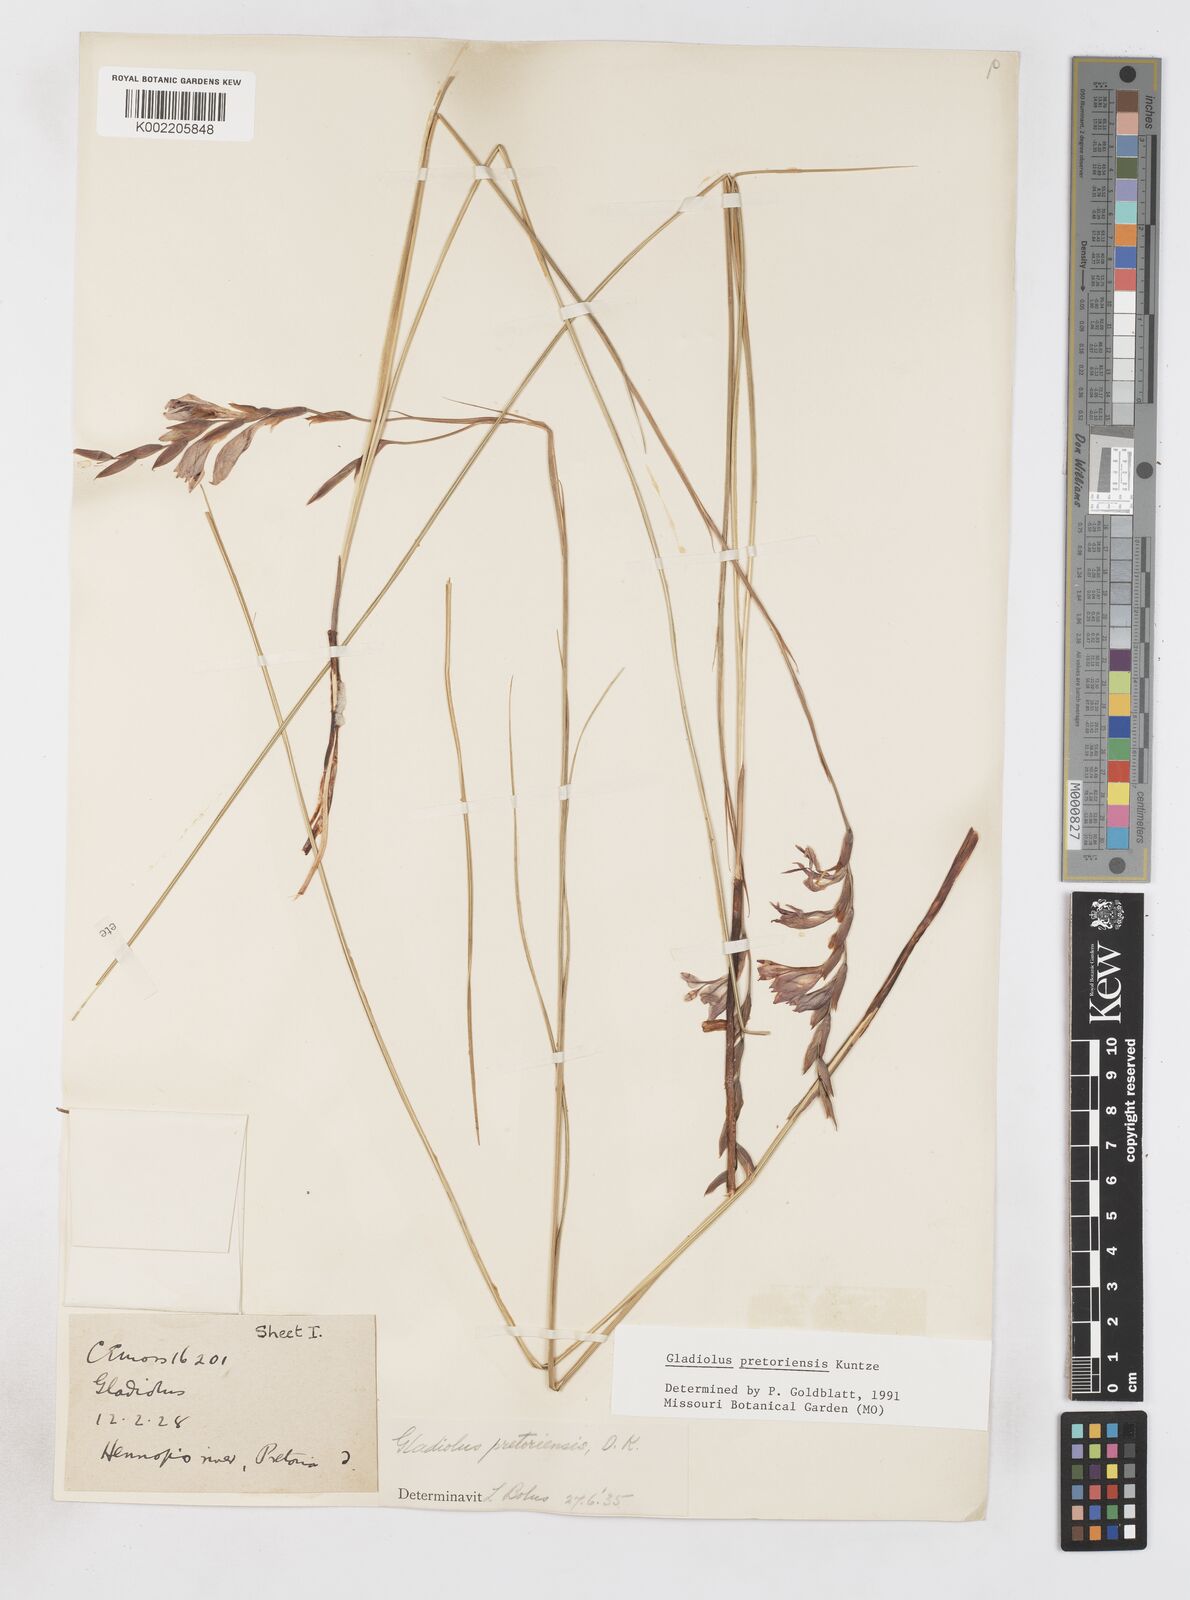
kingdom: Plantae
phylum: Tracheophyta
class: Liliopsida
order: Asparagales
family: Iridaceae
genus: Gladiolus
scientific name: Gladiolus pretoriensis
